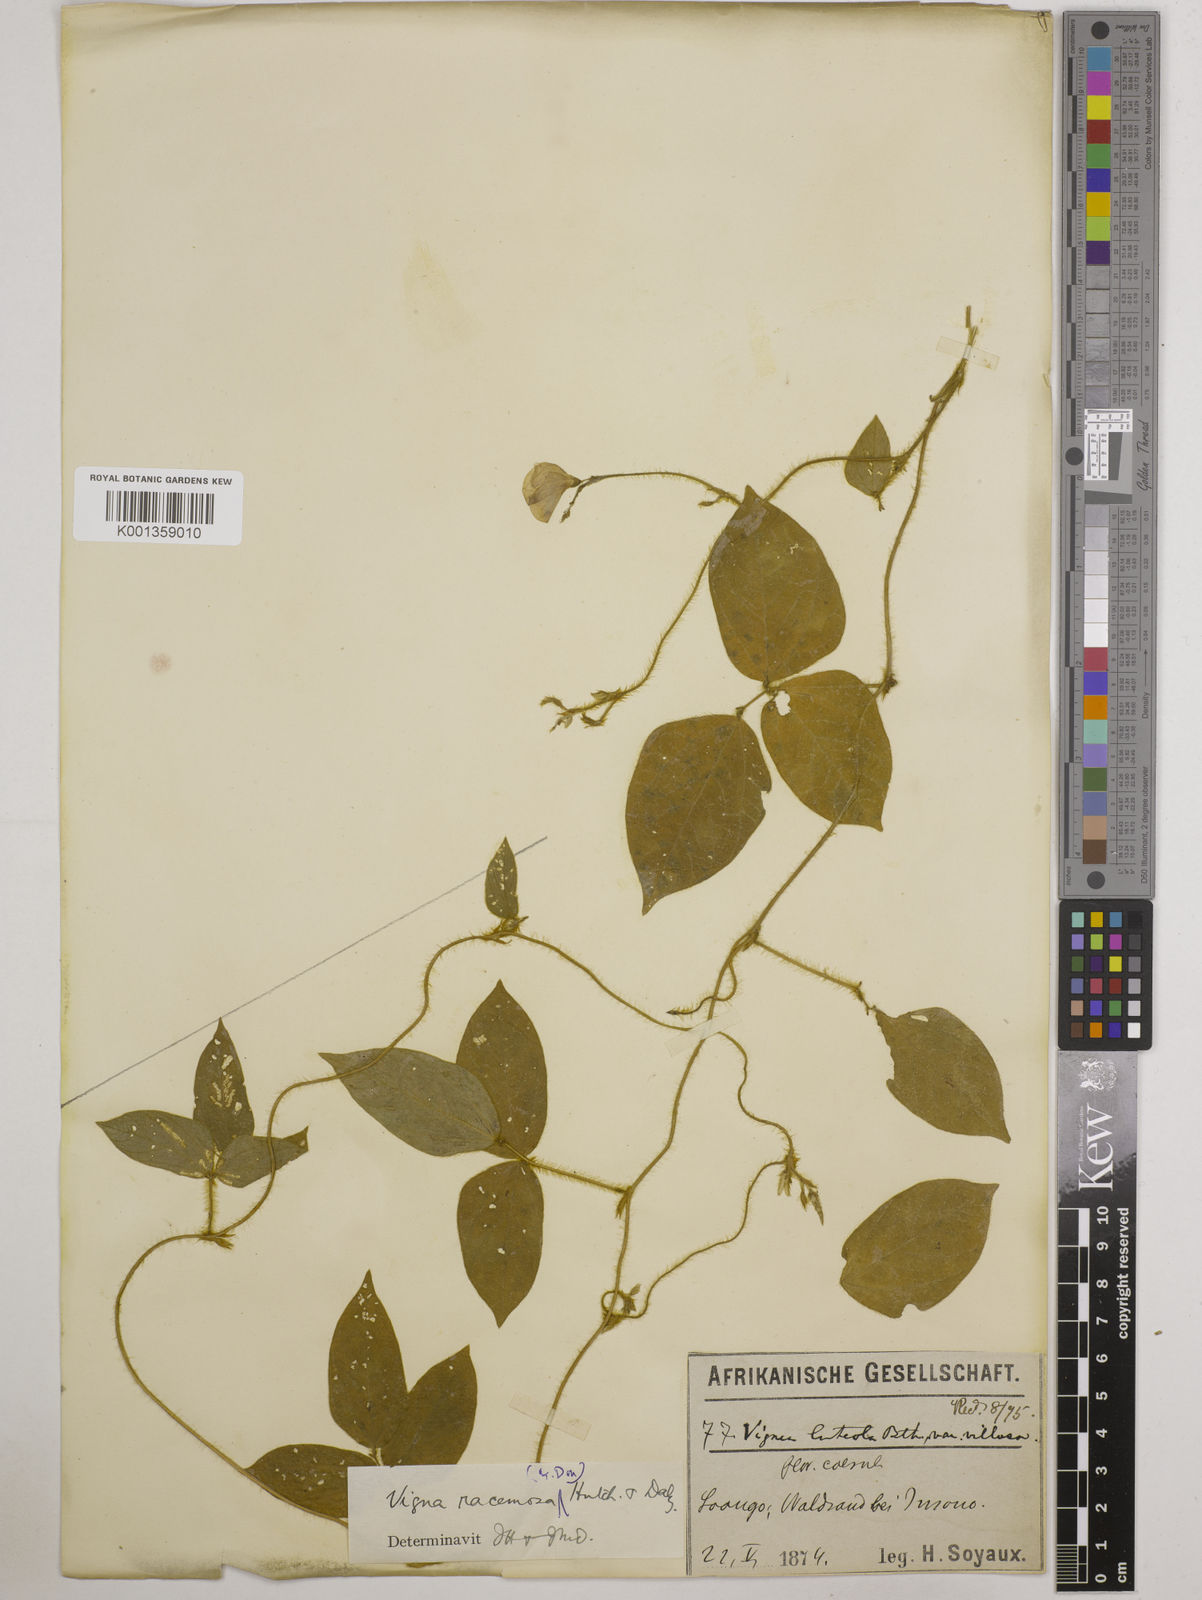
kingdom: Plantae
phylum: Tracheophyta
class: Magnoliopsida
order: Fabales
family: Fabaceae
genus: Vigna
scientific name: Vigna racemosa
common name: Beans not eaten
